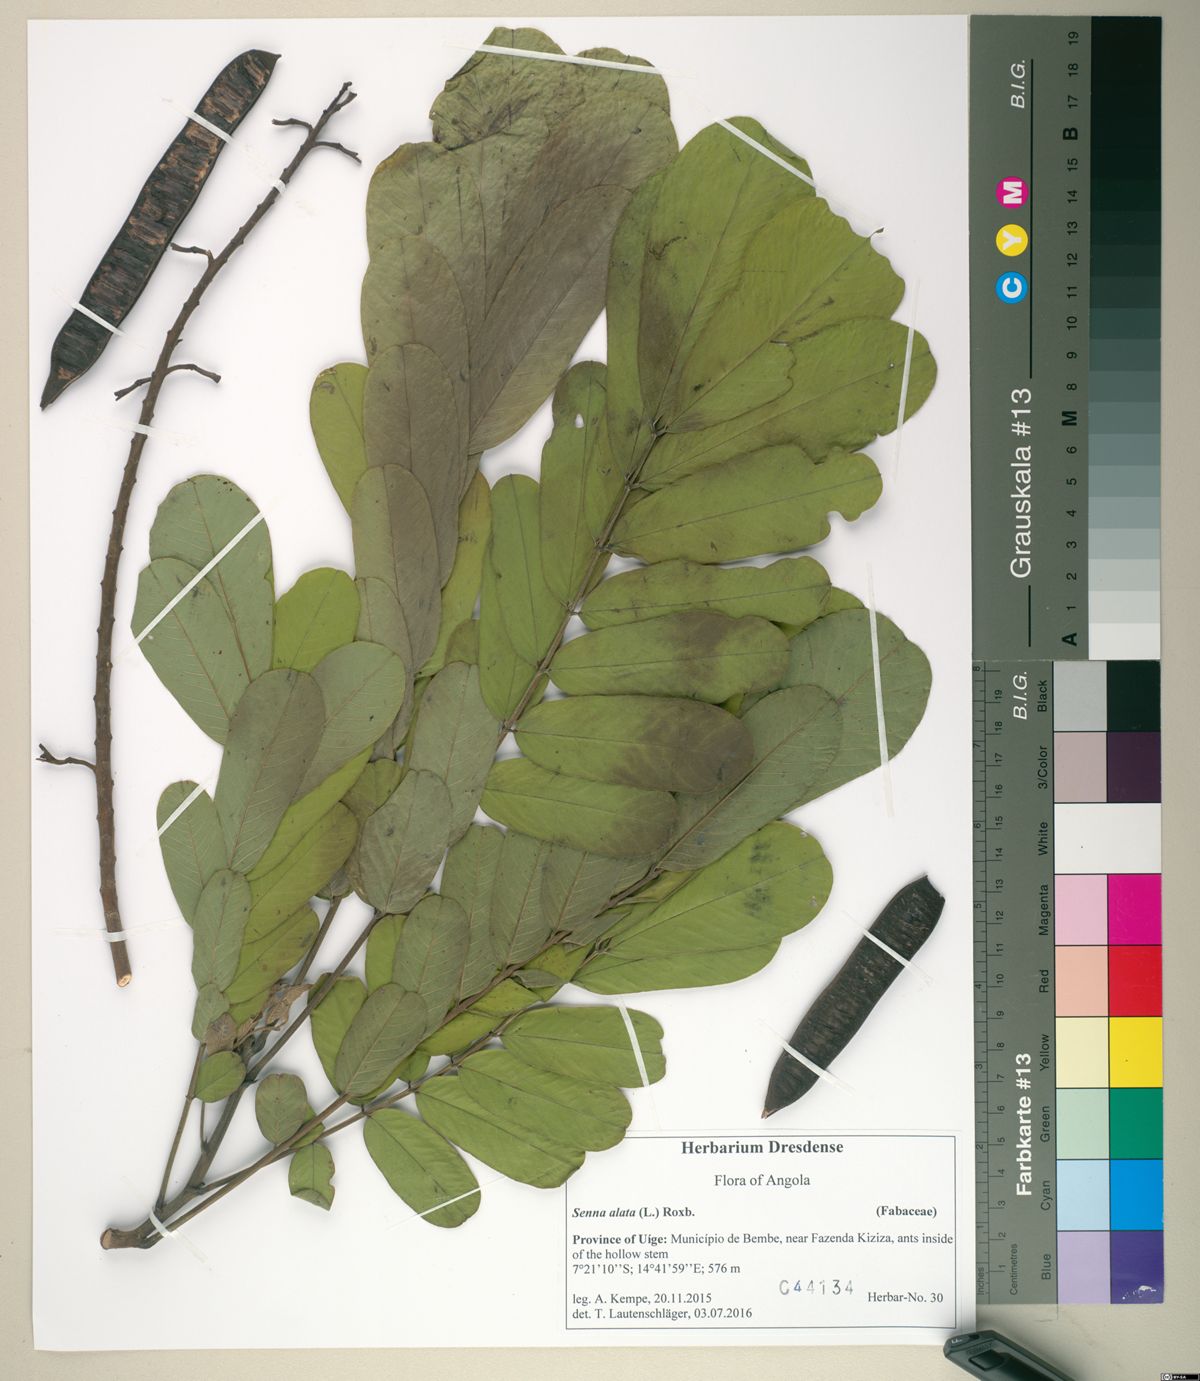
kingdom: Plantae
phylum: Tracheophyta
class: Magnoliopsida
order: Fabales
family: Fabaceae
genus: Senna
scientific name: Senna alata
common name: Emperor's candlesticks
